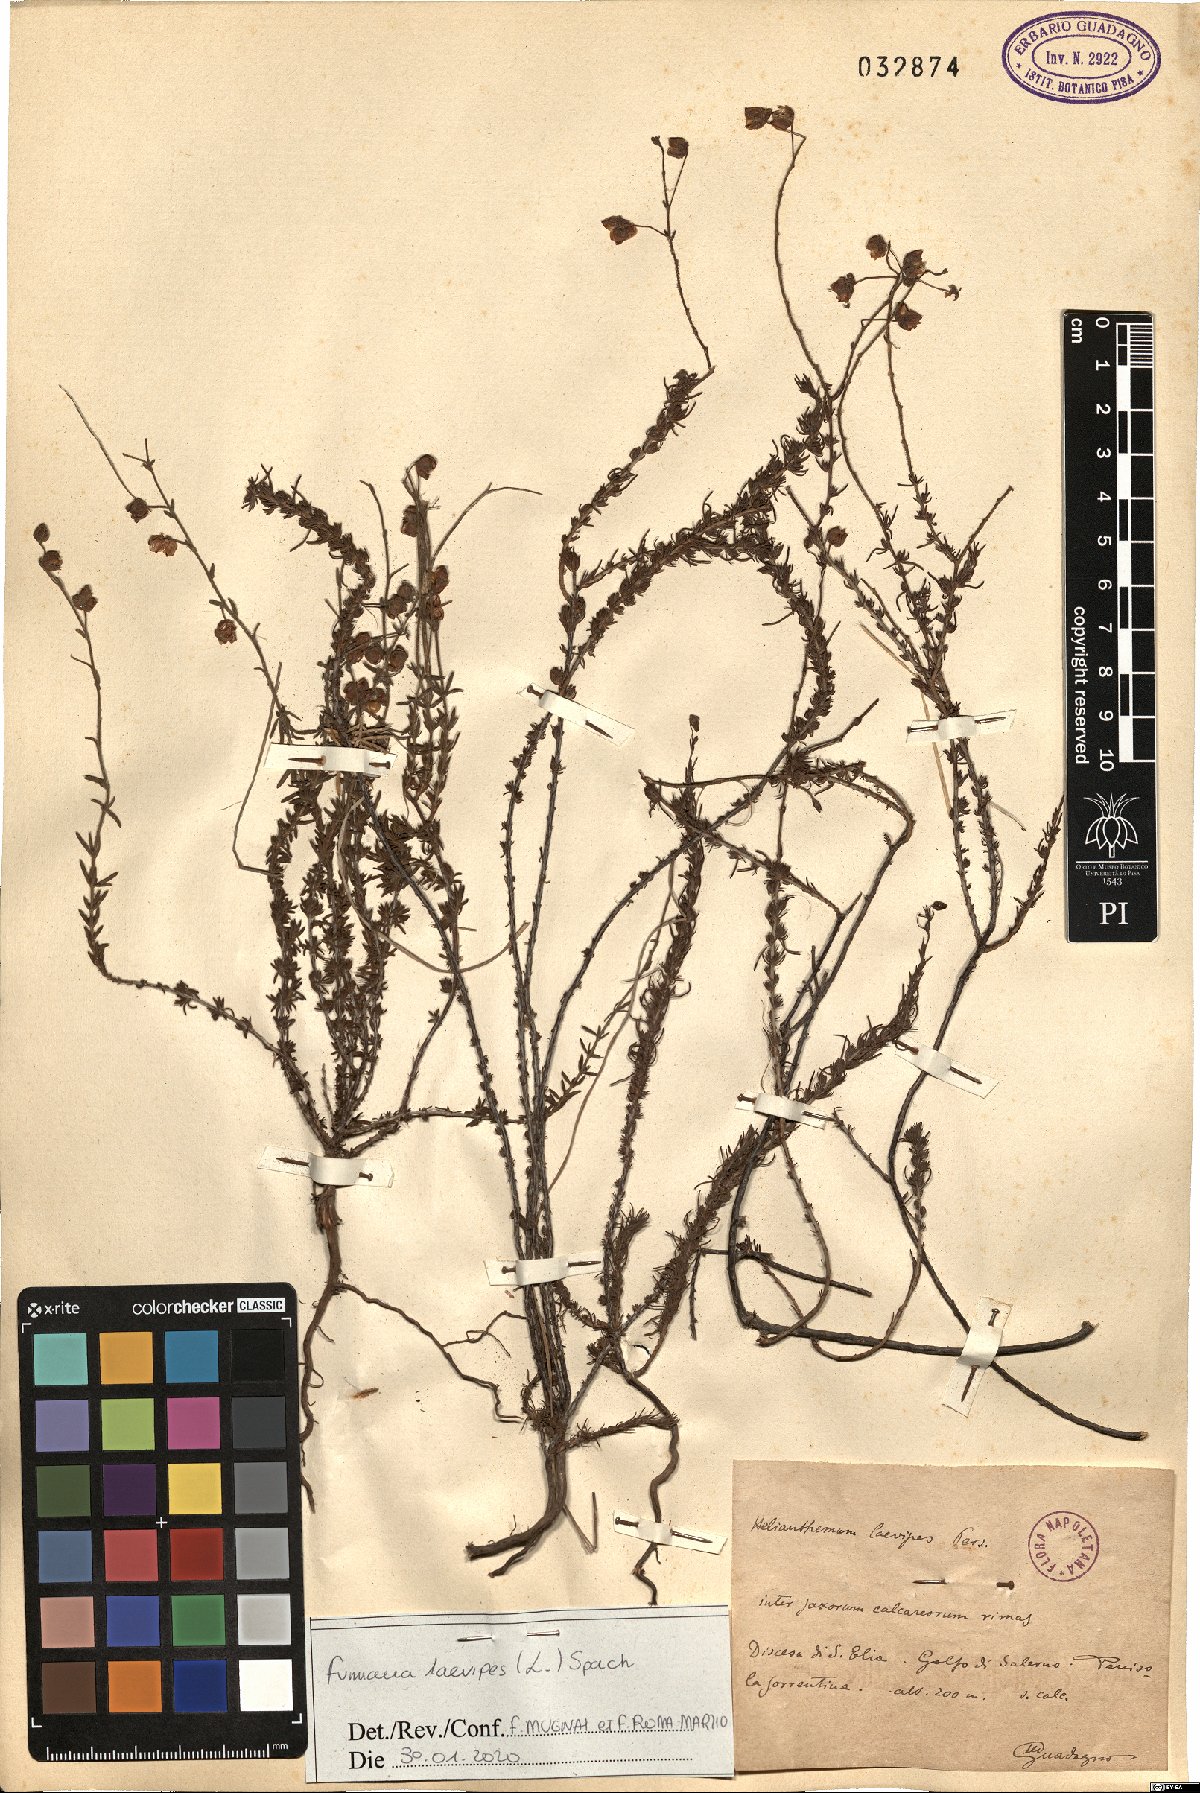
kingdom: Plantae
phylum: Tracheophyta
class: Magnoliopsida
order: Malvales
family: Cistaceae
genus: Fumana
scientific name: Fumana laevipes
